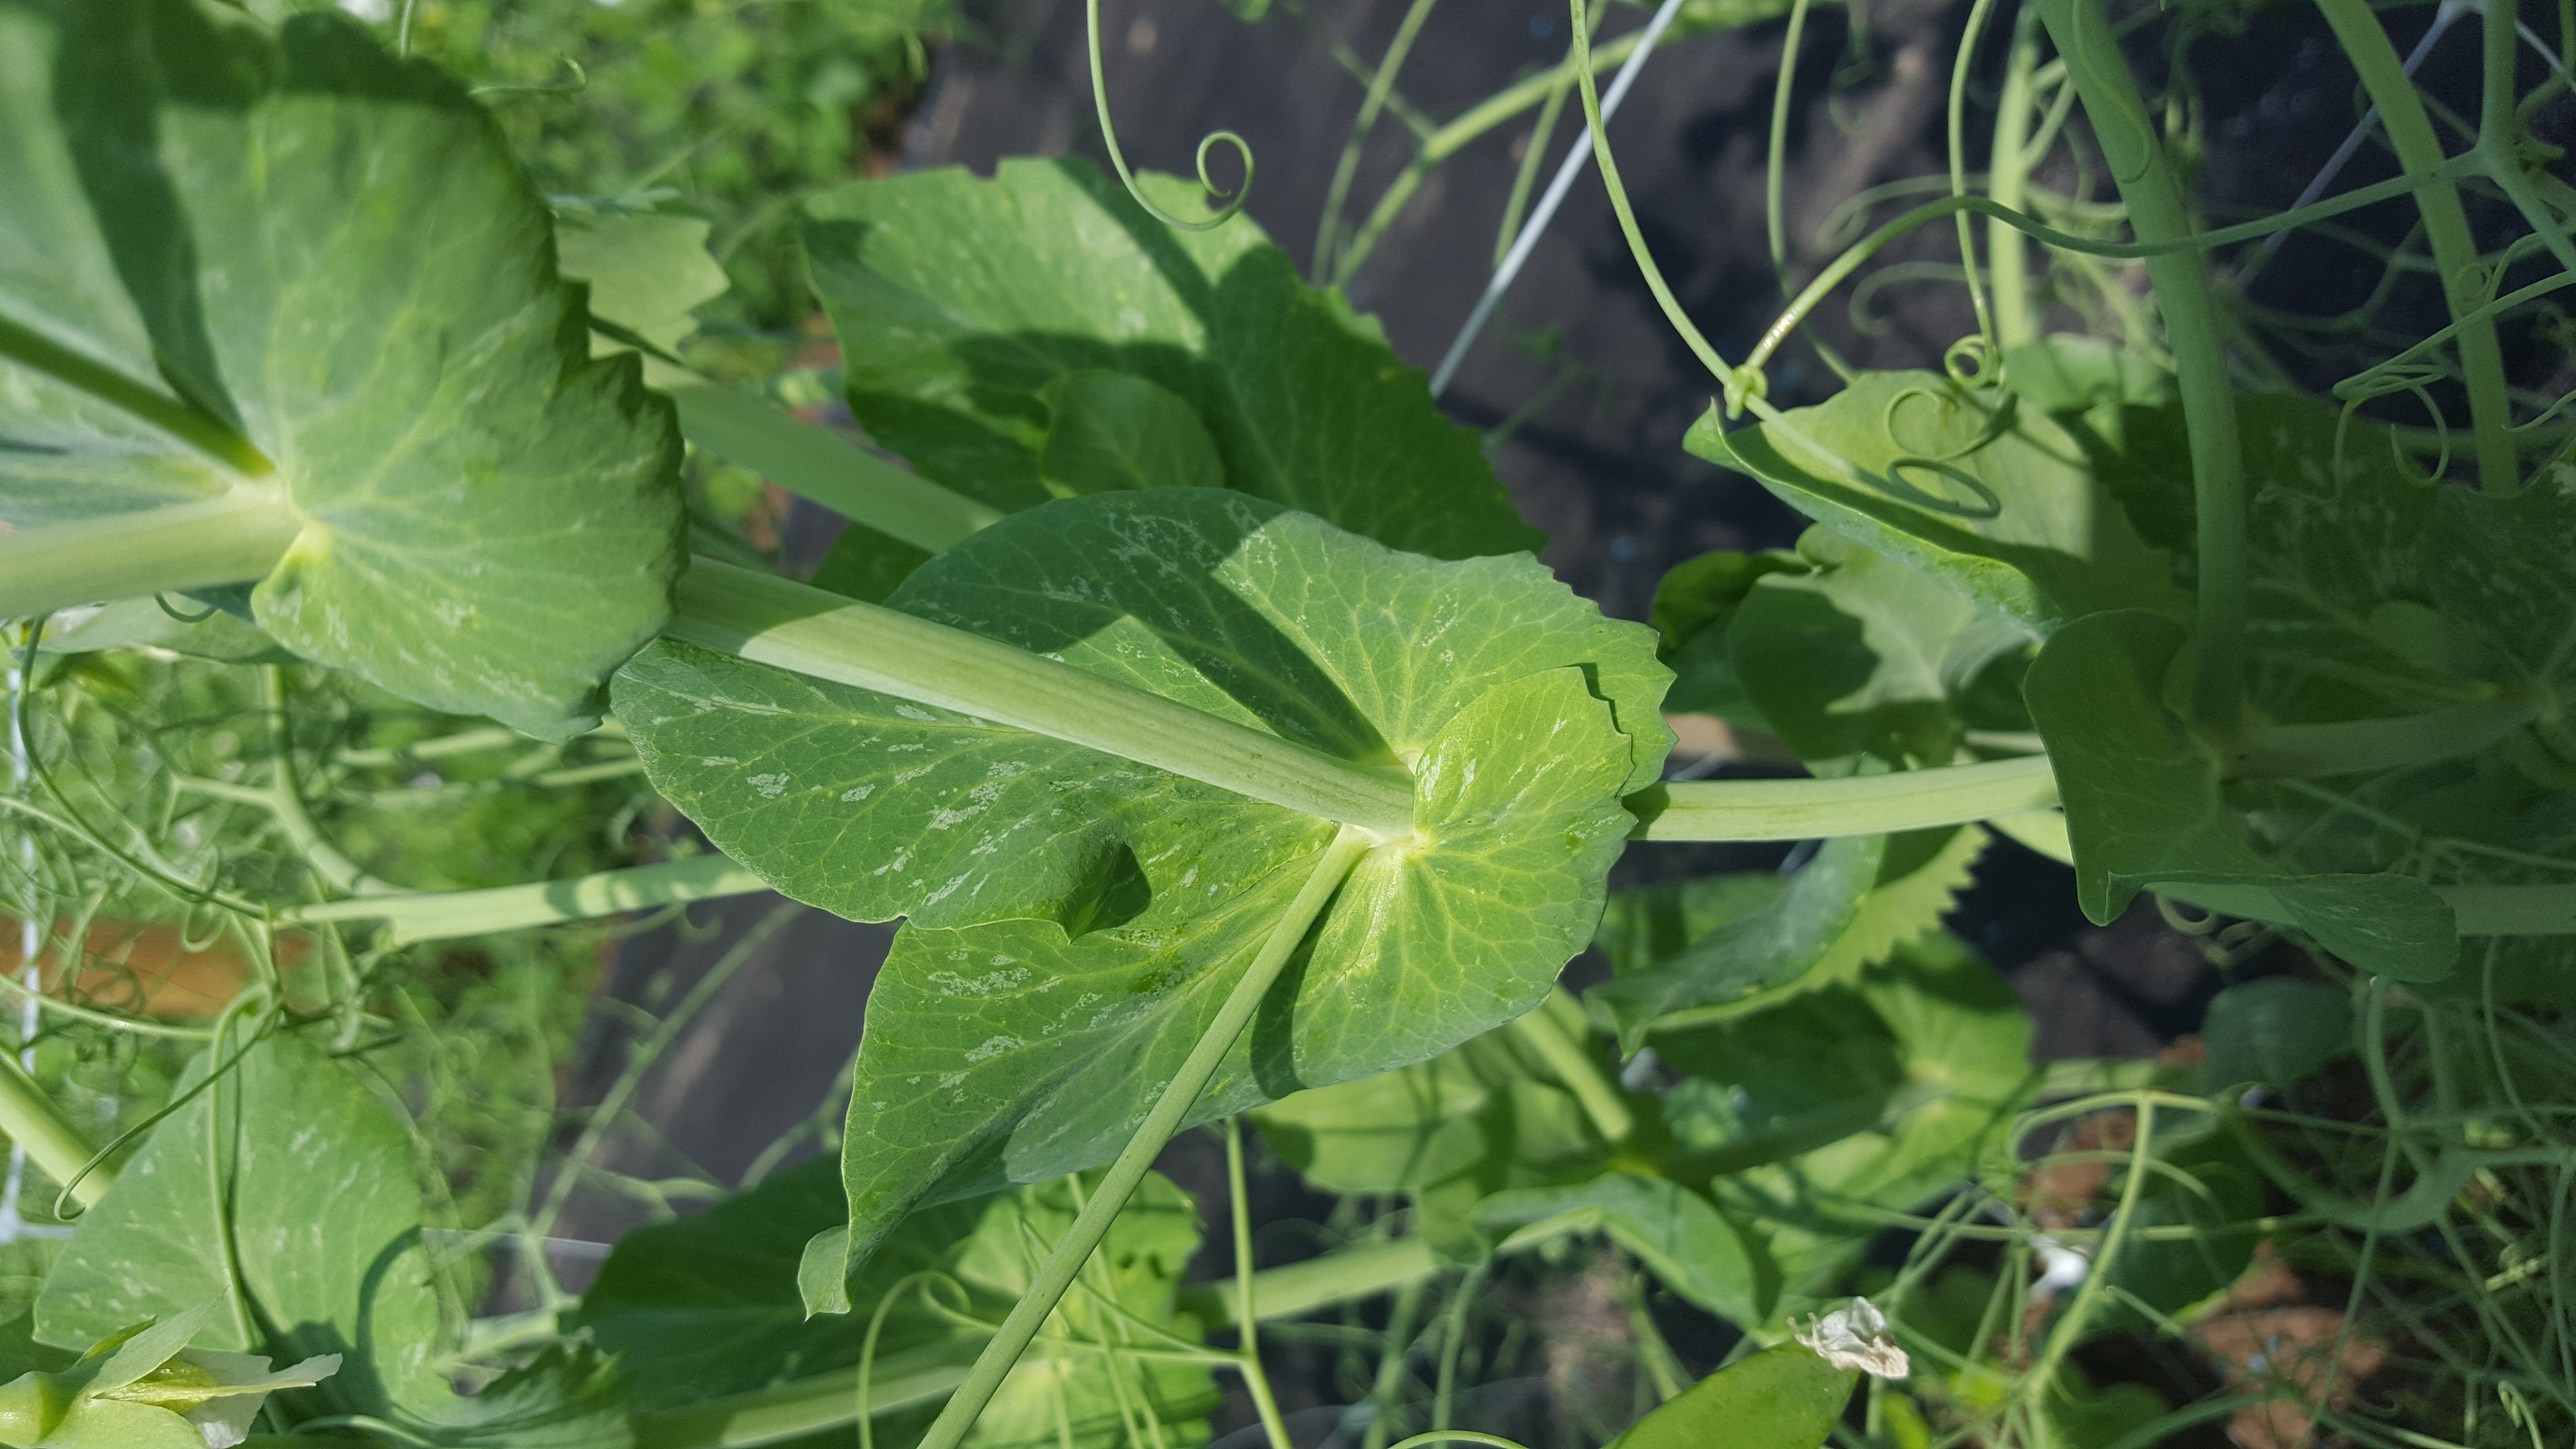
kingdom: Plantae
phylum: Tracheophyta
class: Magnoliopsida
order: Fabales
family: Fabaceae
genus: Lathyrus
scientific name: Lathyrus oleraceus
